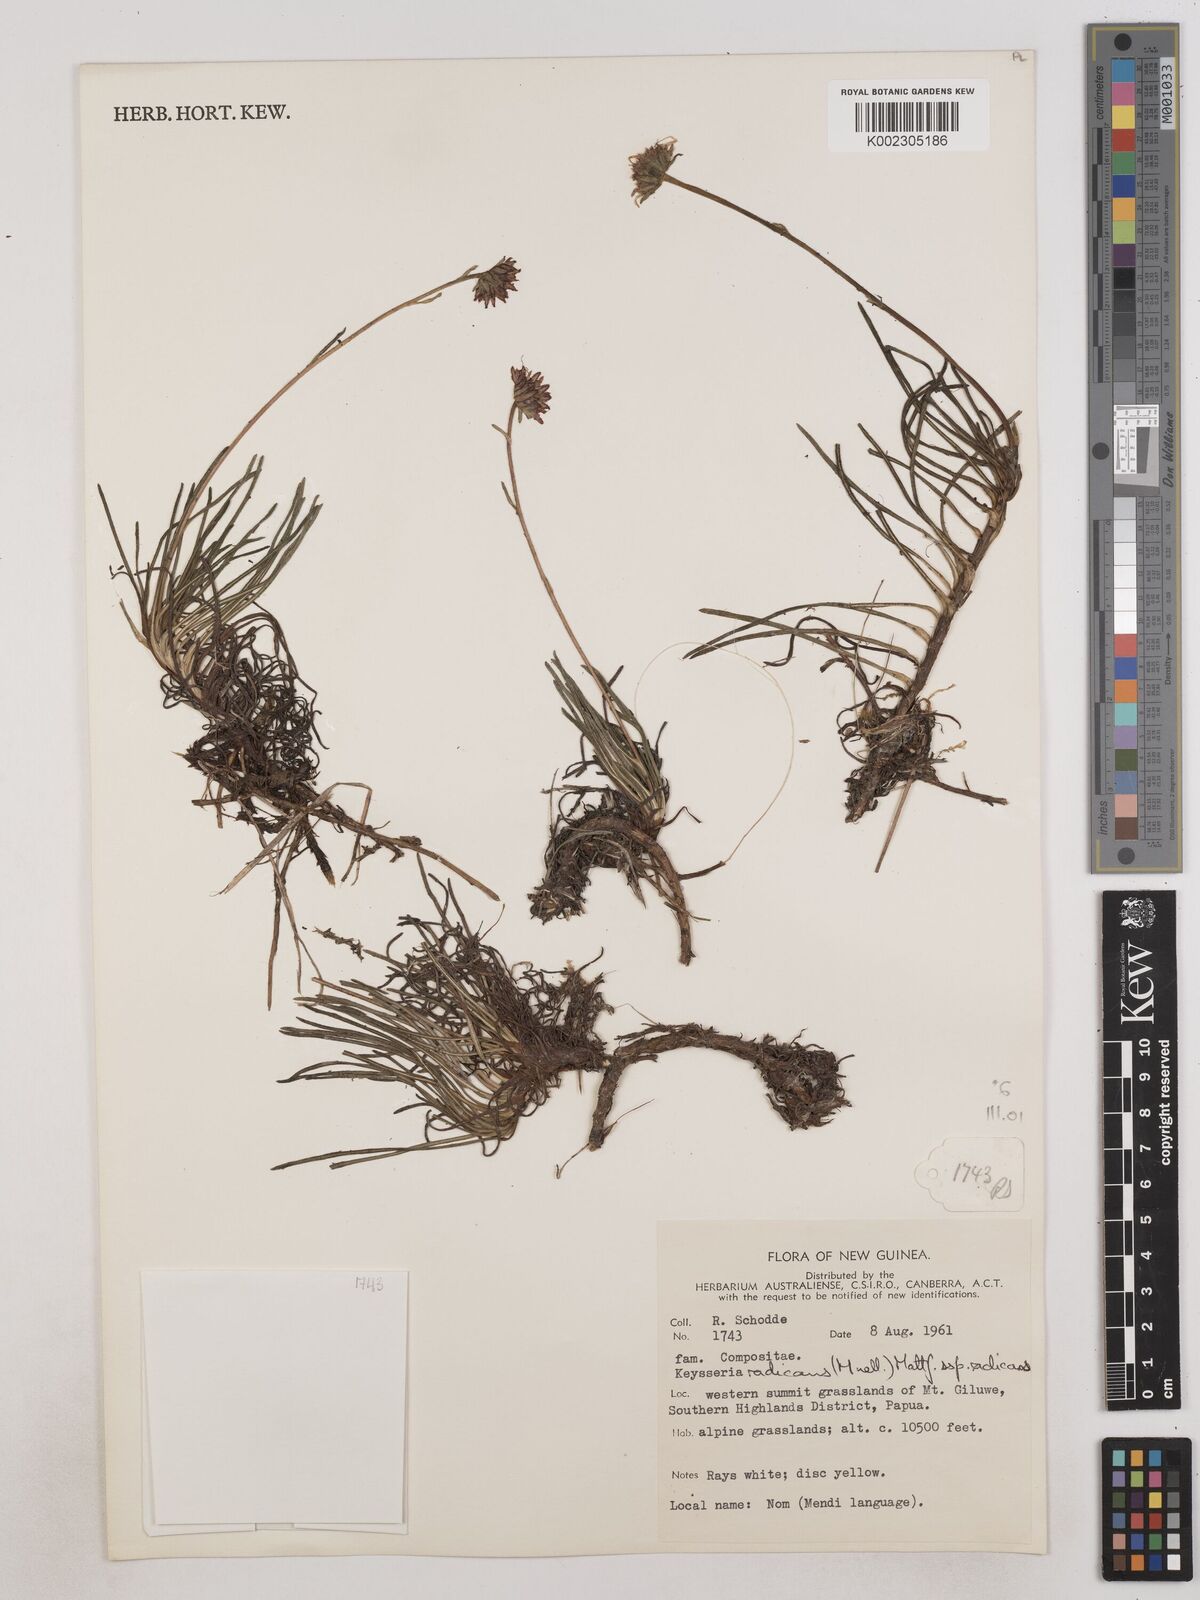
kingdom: Plantae
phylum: Tracheophyta
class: Magnoliopsida
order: Asterales
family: Asteraceae
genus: Keysseria
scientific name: Keysseria radicans
